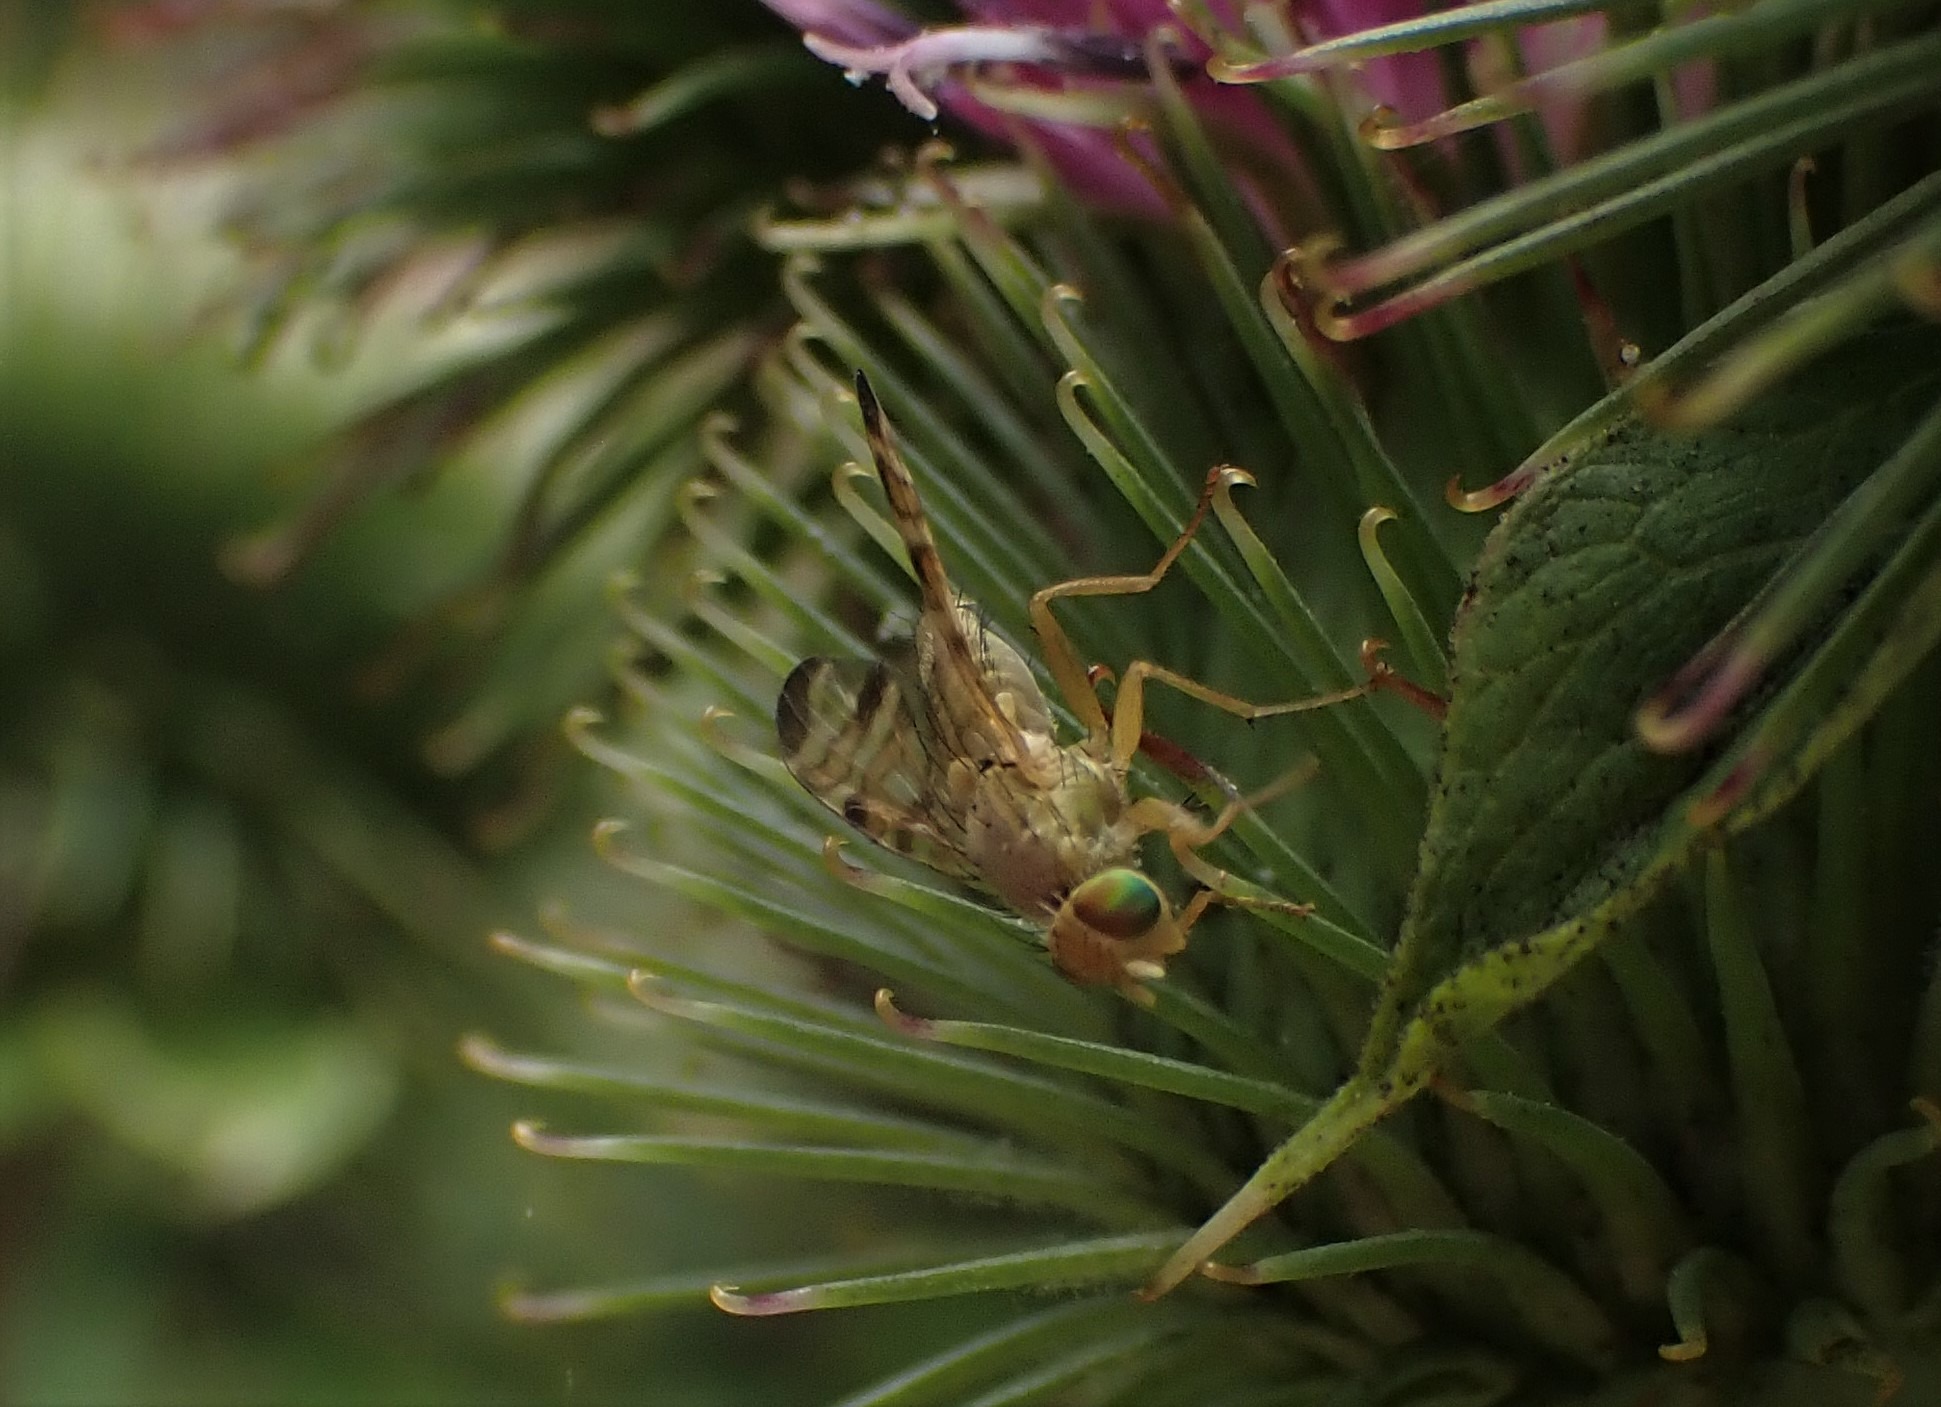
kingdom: Animalia
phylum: Arthropoda
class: Insecta
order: Diptera
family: Tephritidae
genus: Terellia
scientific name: Terellia tussilaginis
